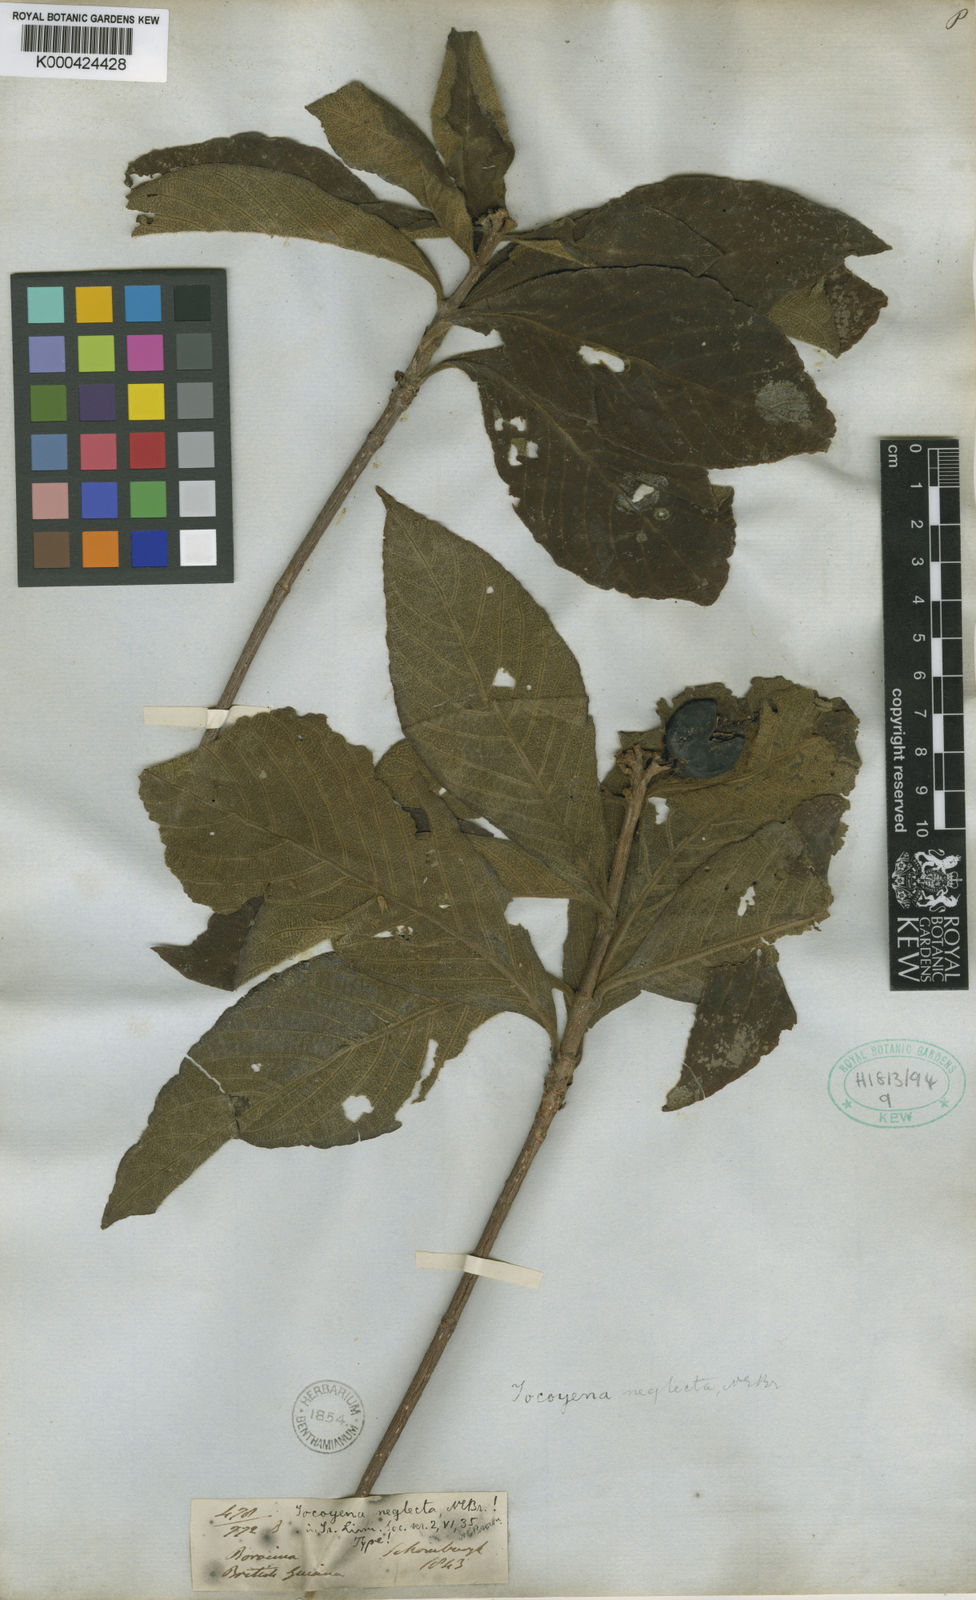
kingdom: Plantae
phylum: Tracheophyta
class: Magnoliopsida
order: Gentianales
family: Rubiaceae
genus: Tocoyena
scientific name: Tocoyena neglecta
